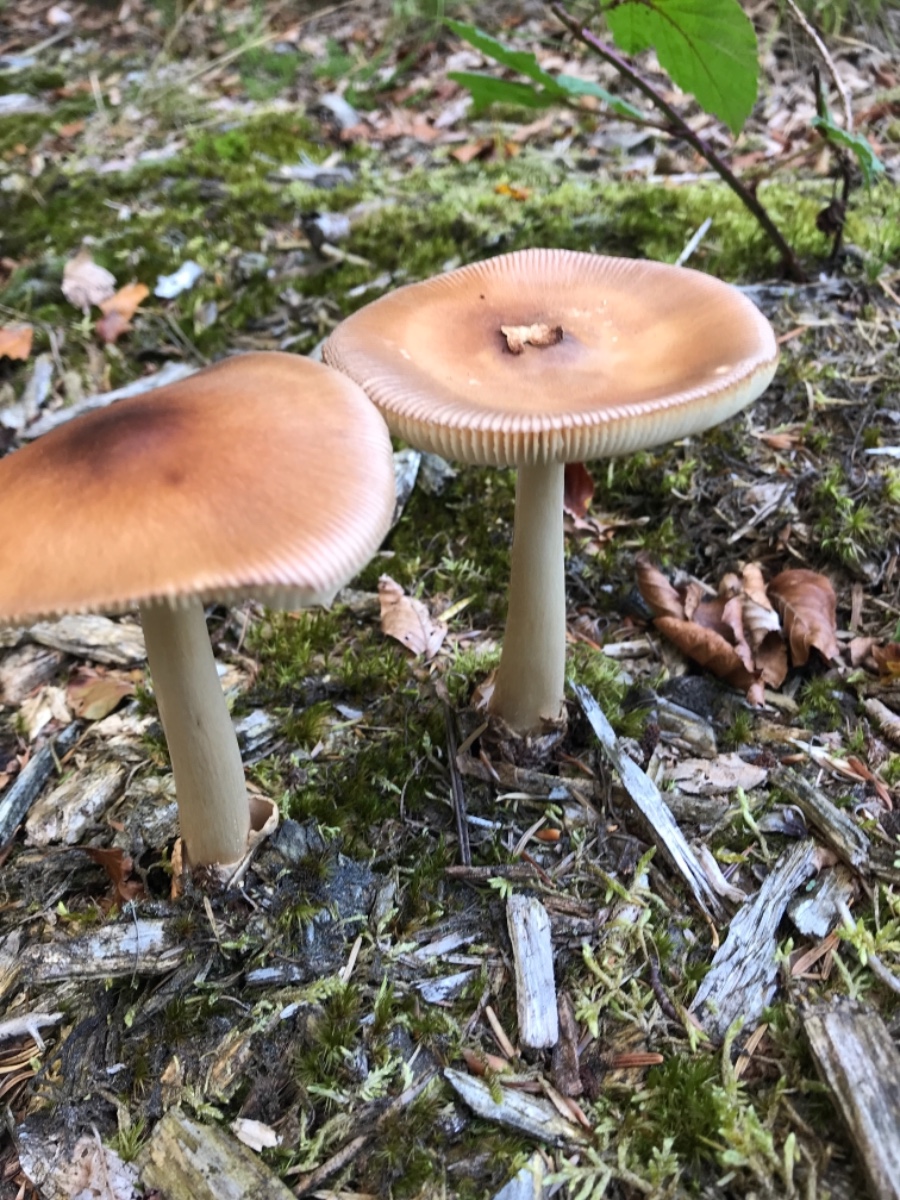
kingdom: Fungi
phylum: Basidiomycota
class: Agaricomycetes
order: Agaricales
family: Amanitaceae
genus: Amanita
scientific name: Amanita fulva
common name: brun kam-fluesvamp
